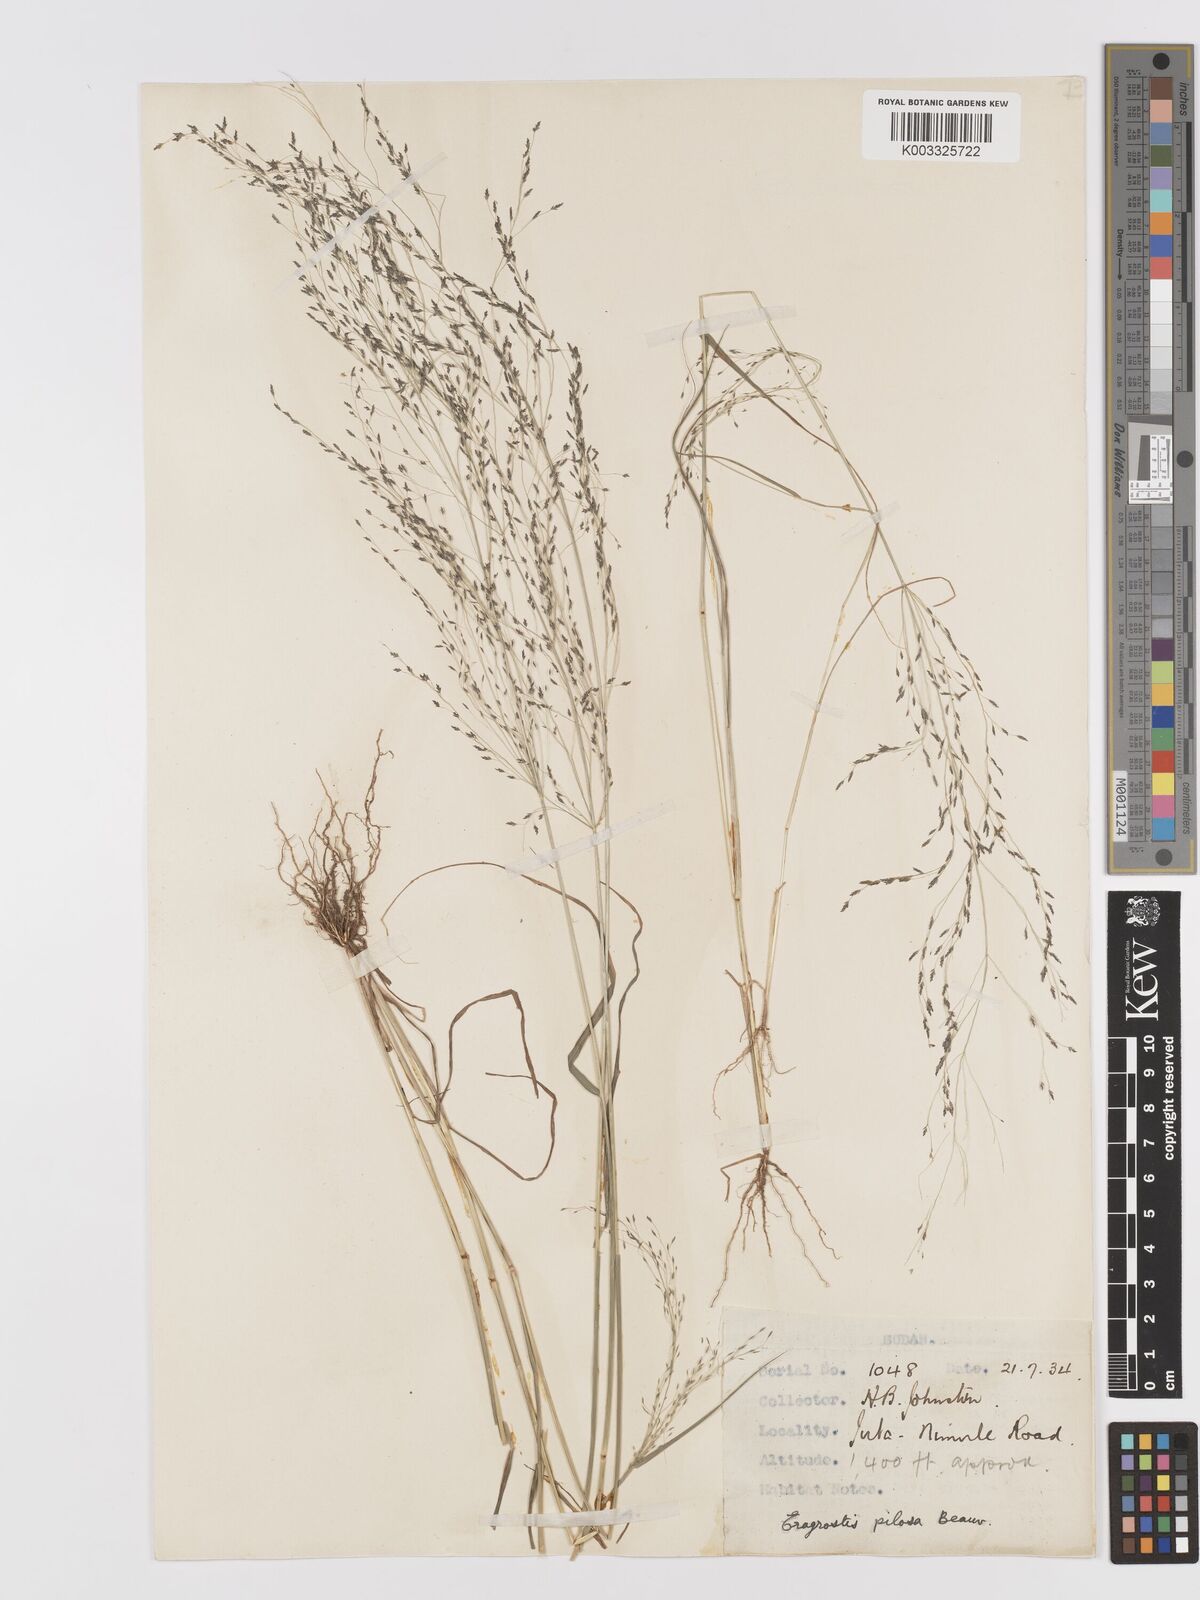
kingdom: Plantae
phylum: Tracheophyta
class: Liliopsida
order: Poales
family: Poaceae
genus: Eragrostis
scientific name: Eragrostis pilosa
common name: Indian lovegrass
